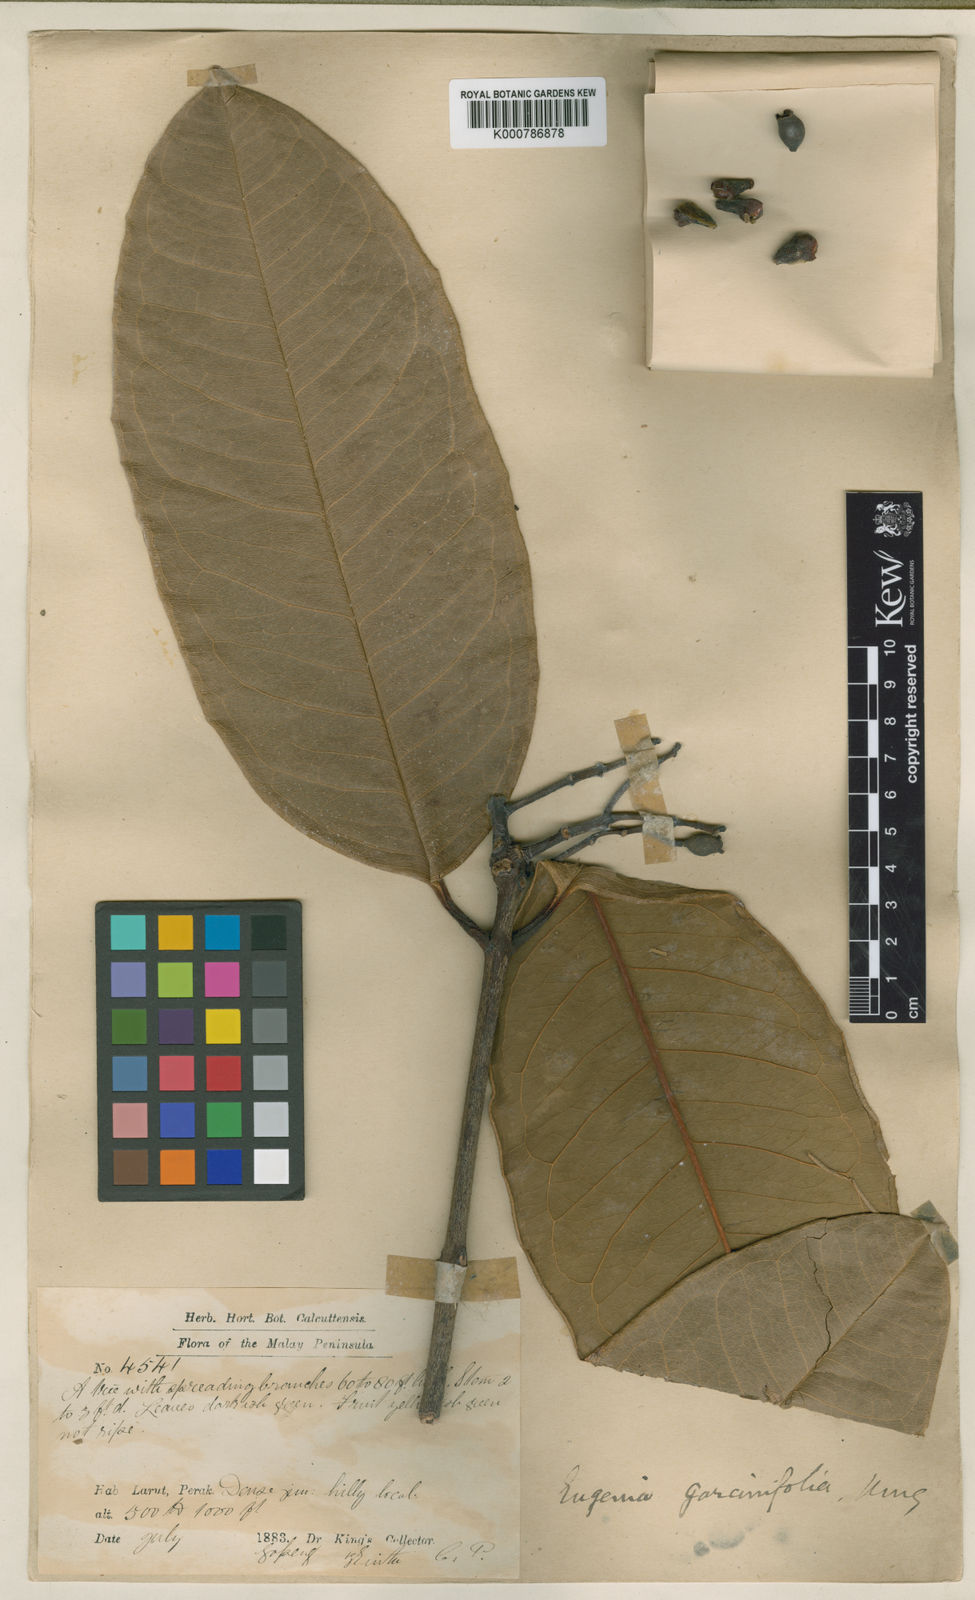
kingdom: Plantae
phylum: Tracheophyta
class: Magnoliopsida
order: Myrtales
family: Myrtaceae
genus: Syzygium
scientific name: Syzygium garciniifolium
